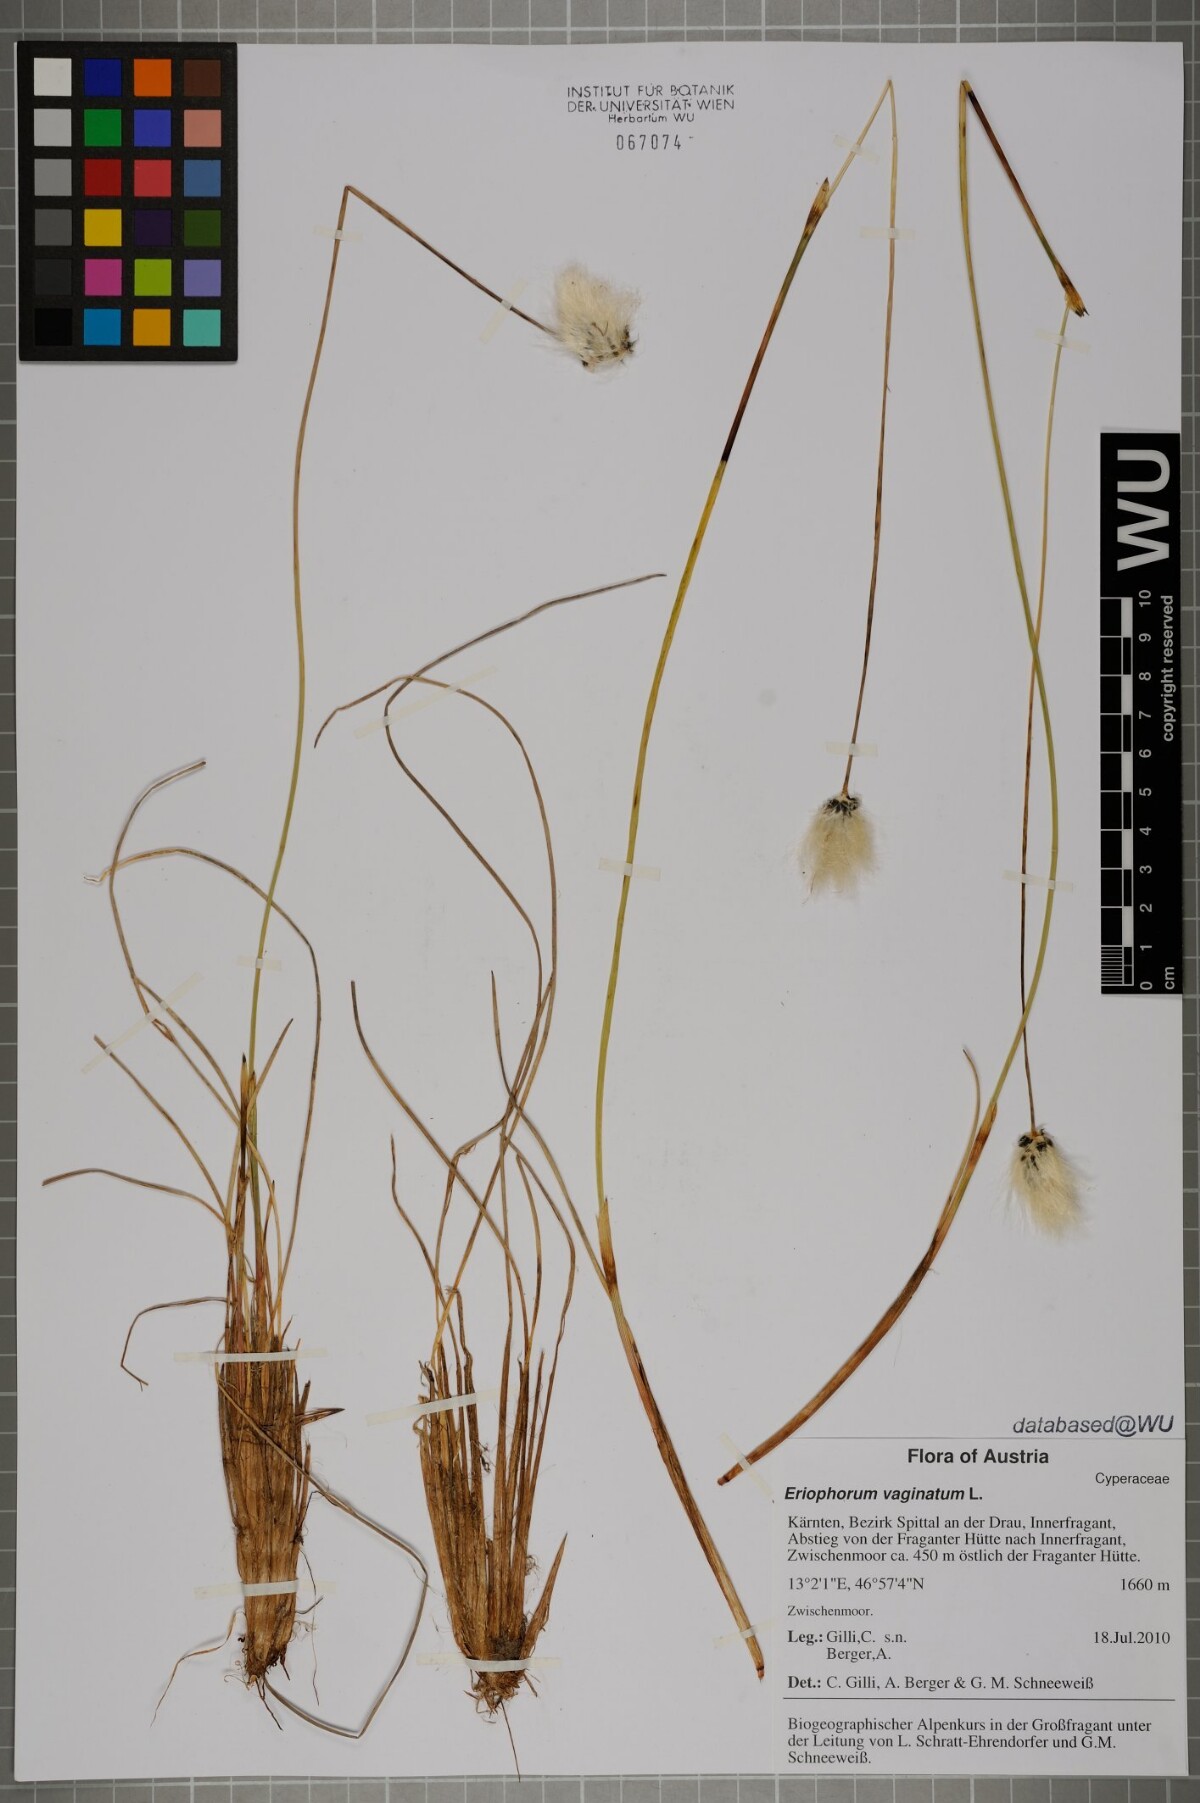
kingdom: Plantae
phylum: Tracheophyta
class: Liliopsida
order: Poales
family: Cyperaceae
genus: Eriophorum
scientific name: Eriophorum vaginatum
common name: Hare's-tail cottongrass
